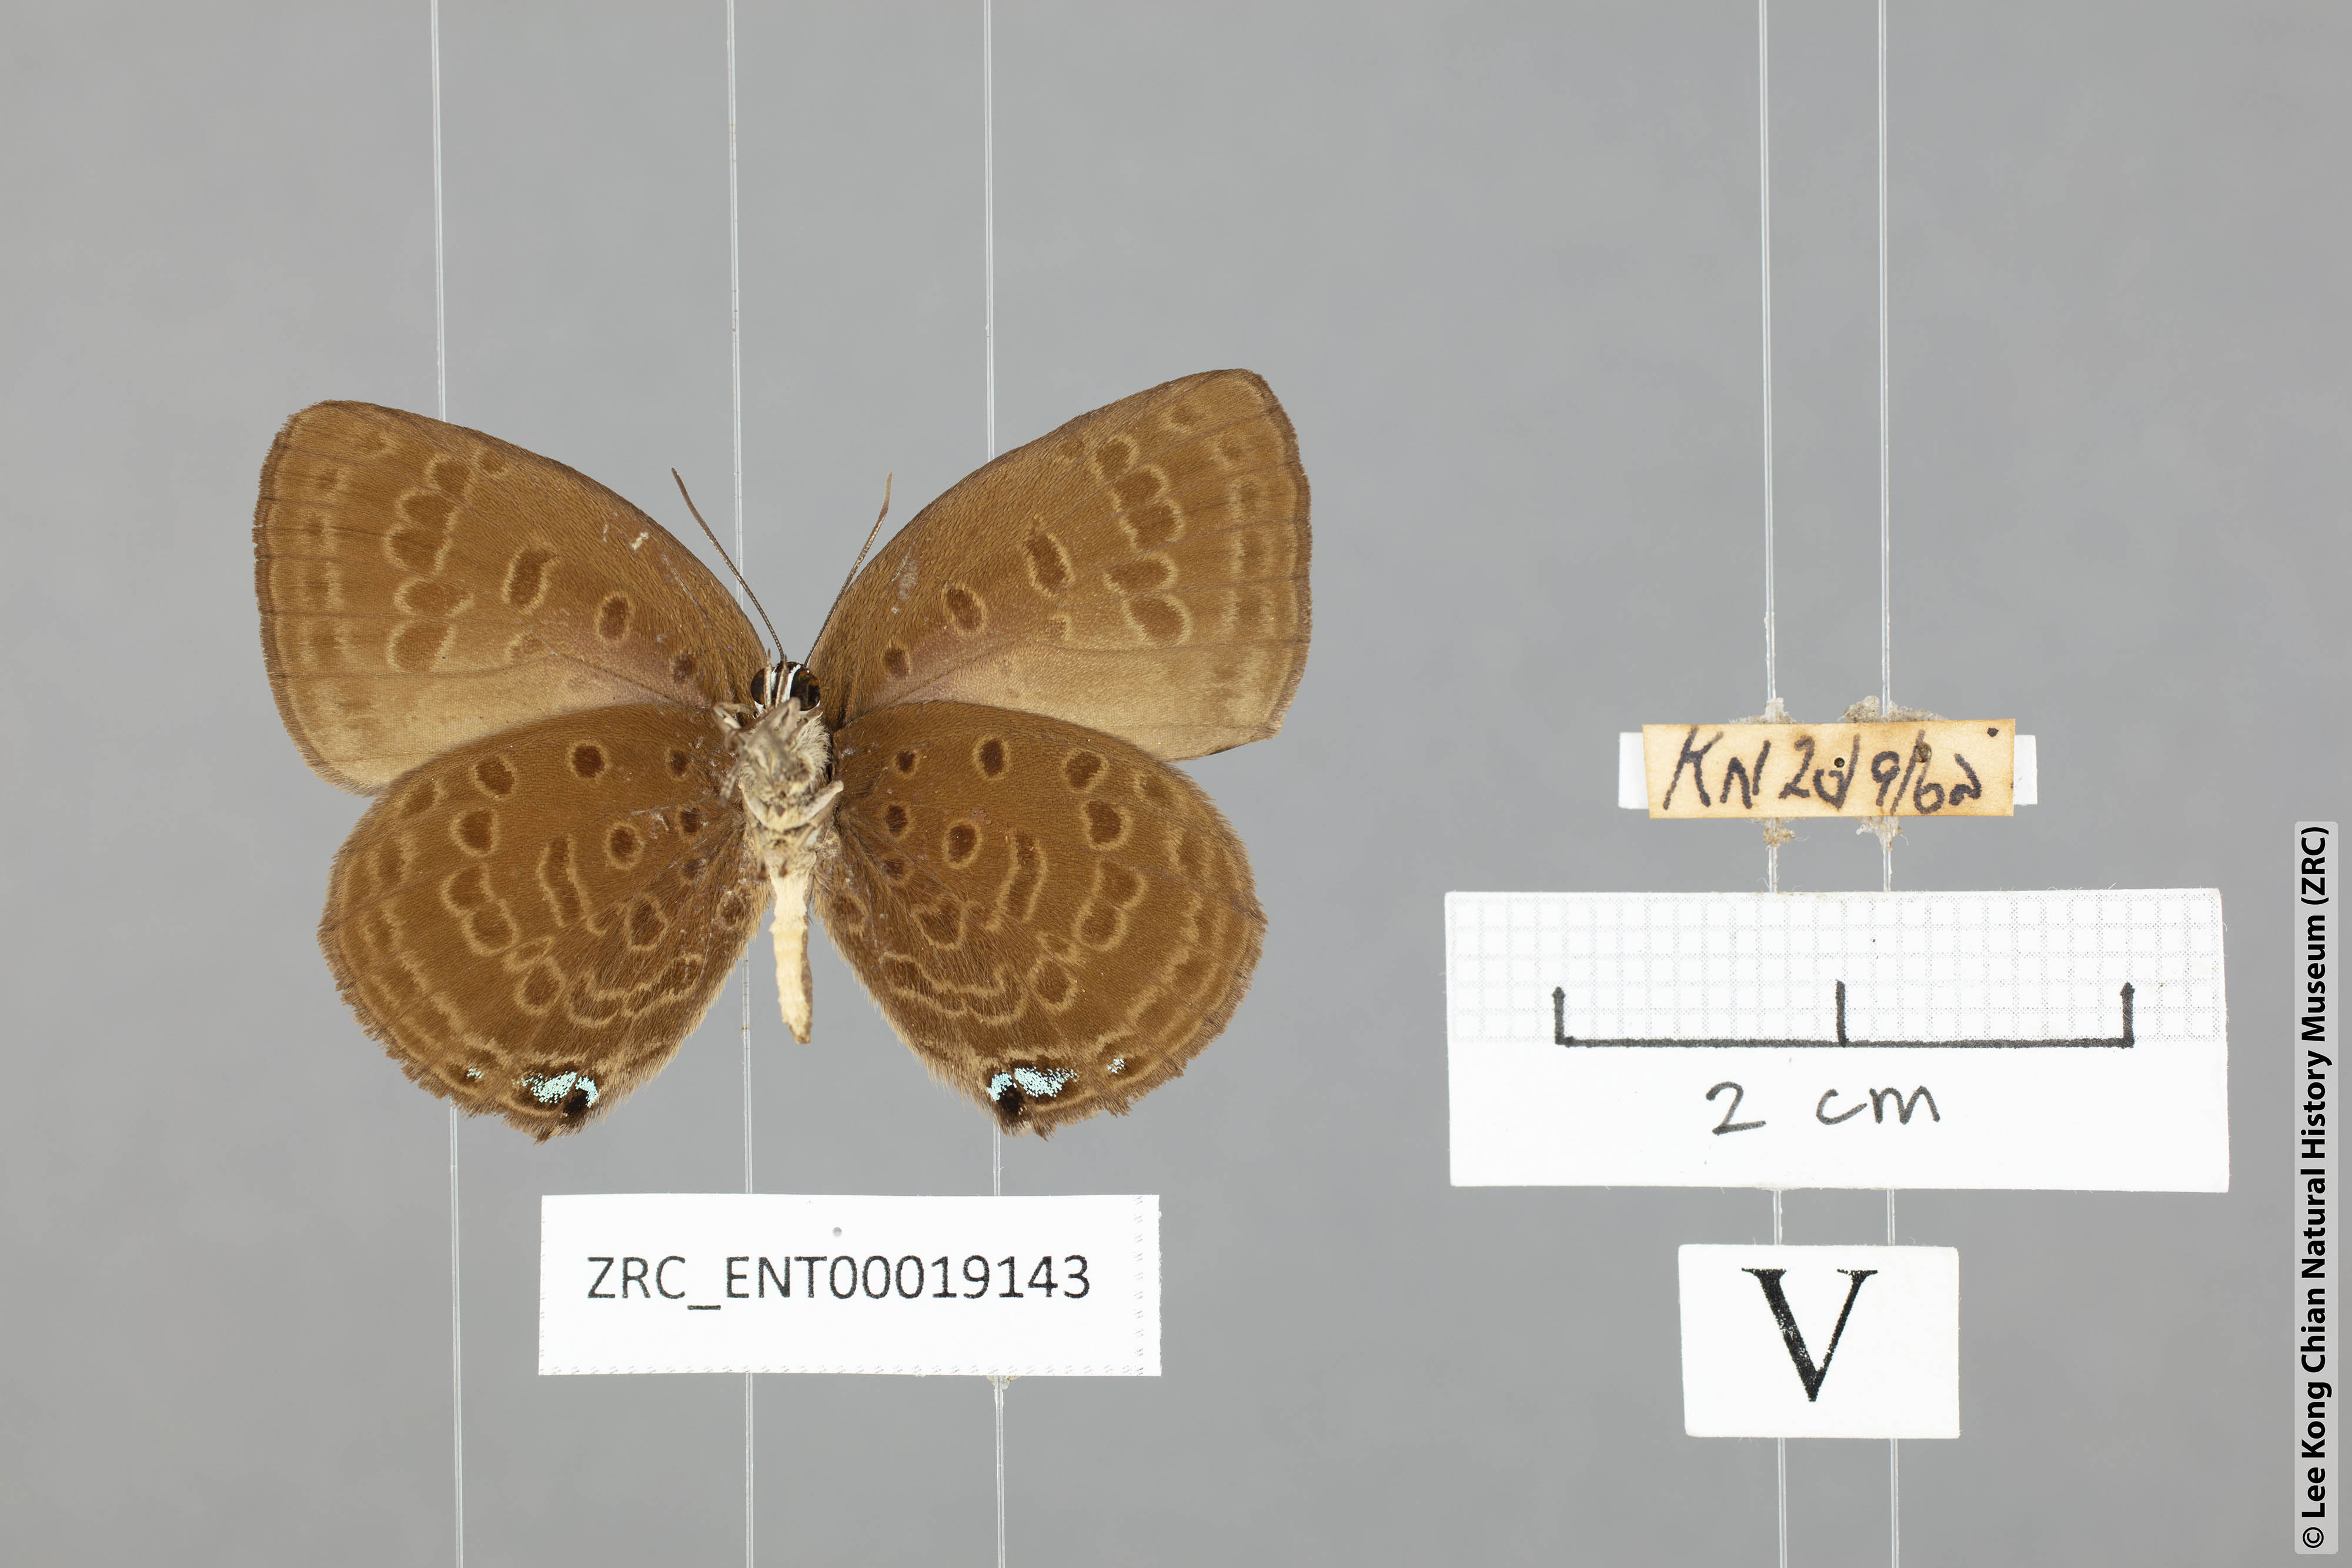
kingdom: Animalia
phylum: Arthropoda
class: Insecta
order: Lepidoptera
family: Lycaenidae
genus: Arhopala
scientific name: Arhopala amphimuta
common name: Broad yellow oakblue
